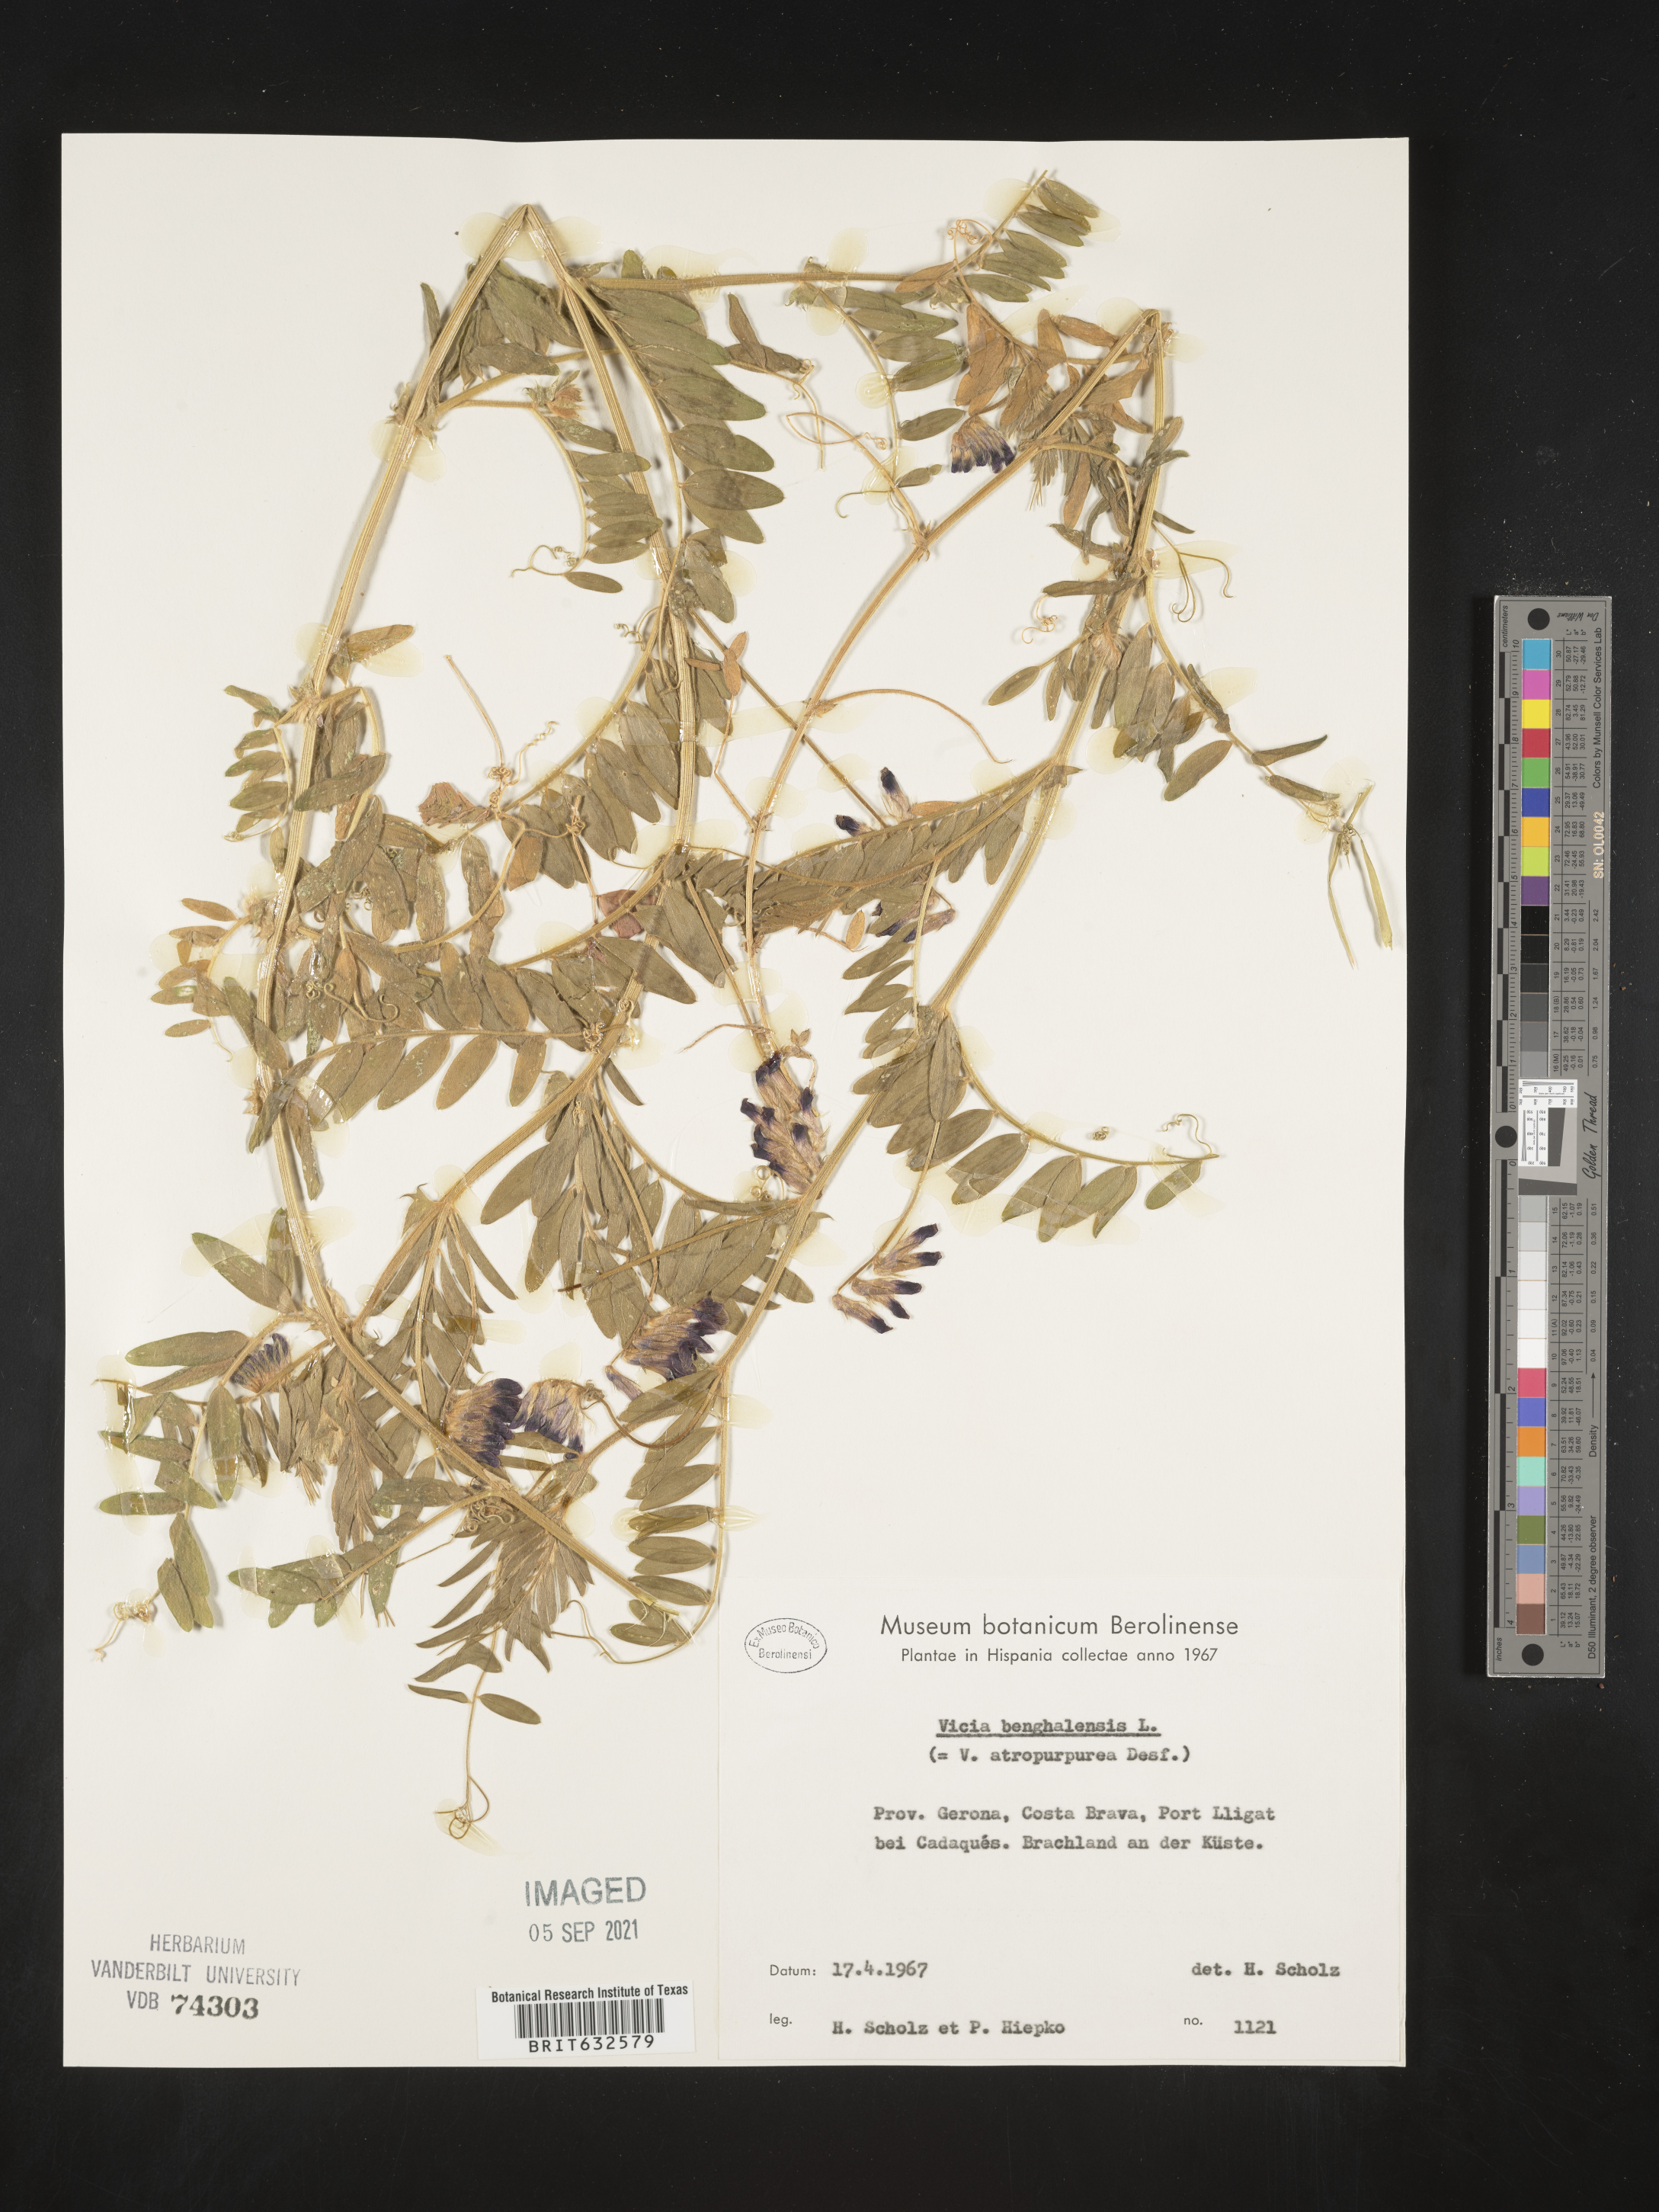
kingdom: Plantae
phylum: Tracheophyta
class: Magnoliopsida
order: Fabales
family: Fabaceae
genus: Vicia
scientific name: Vicia
